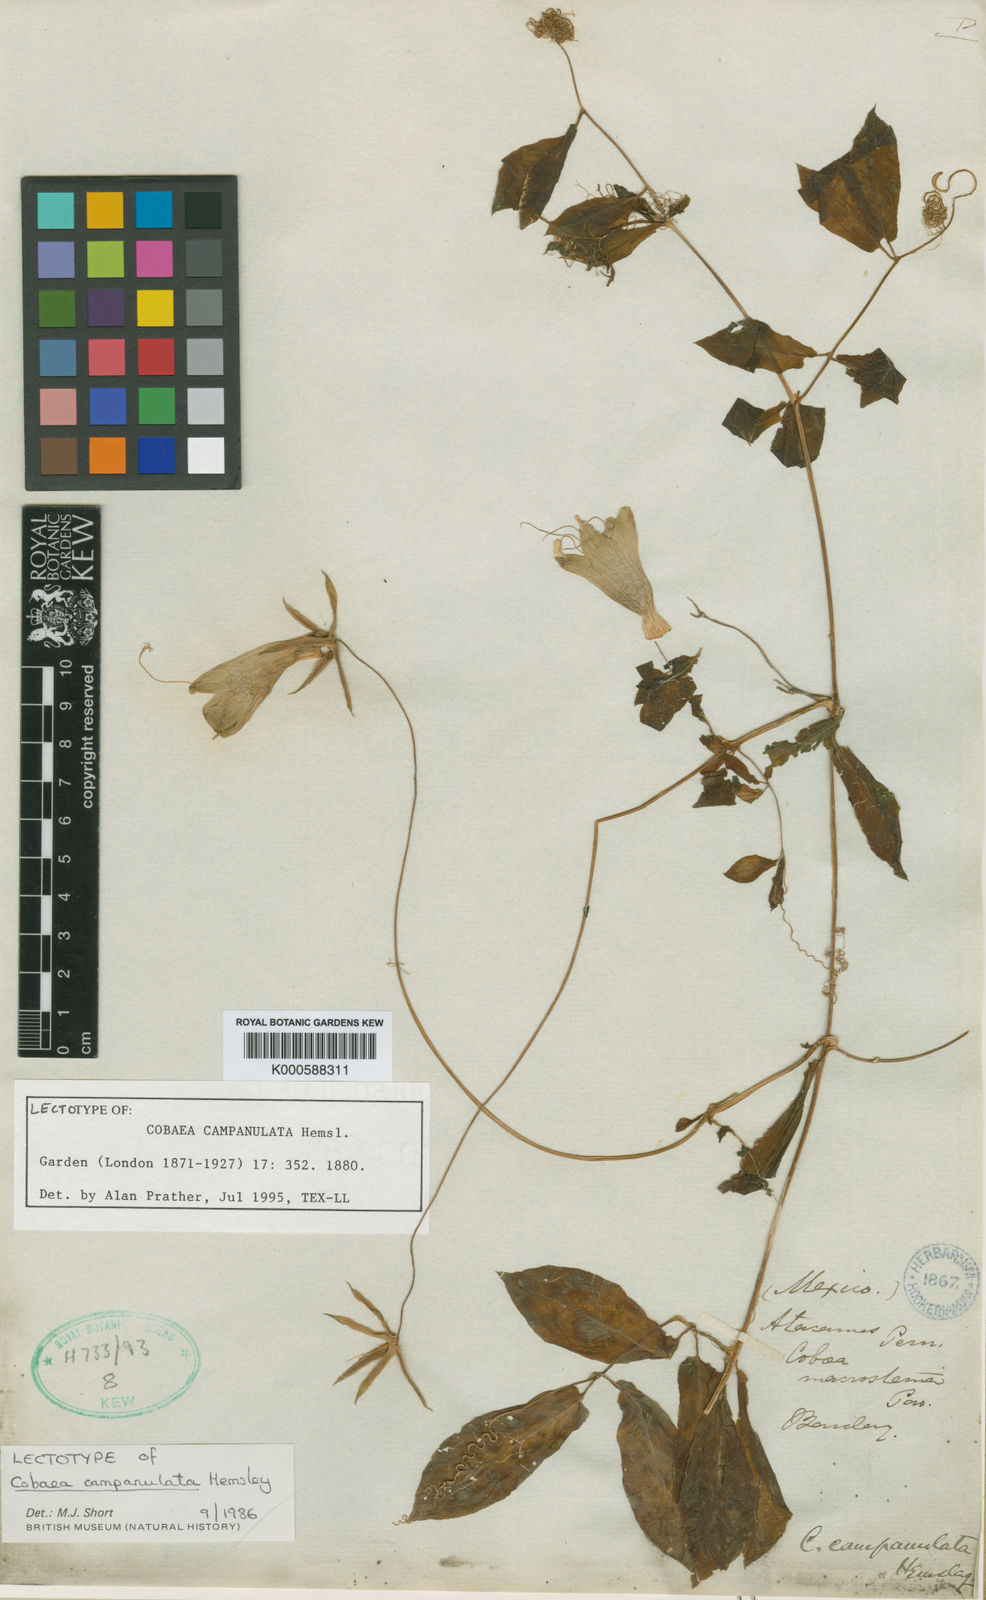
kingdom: Plantae
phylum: Tracheophyta
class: Magnoliopsida
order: Ericales
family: Polemoniaceae
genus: Cobaea
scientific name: Cobaea campanulata
